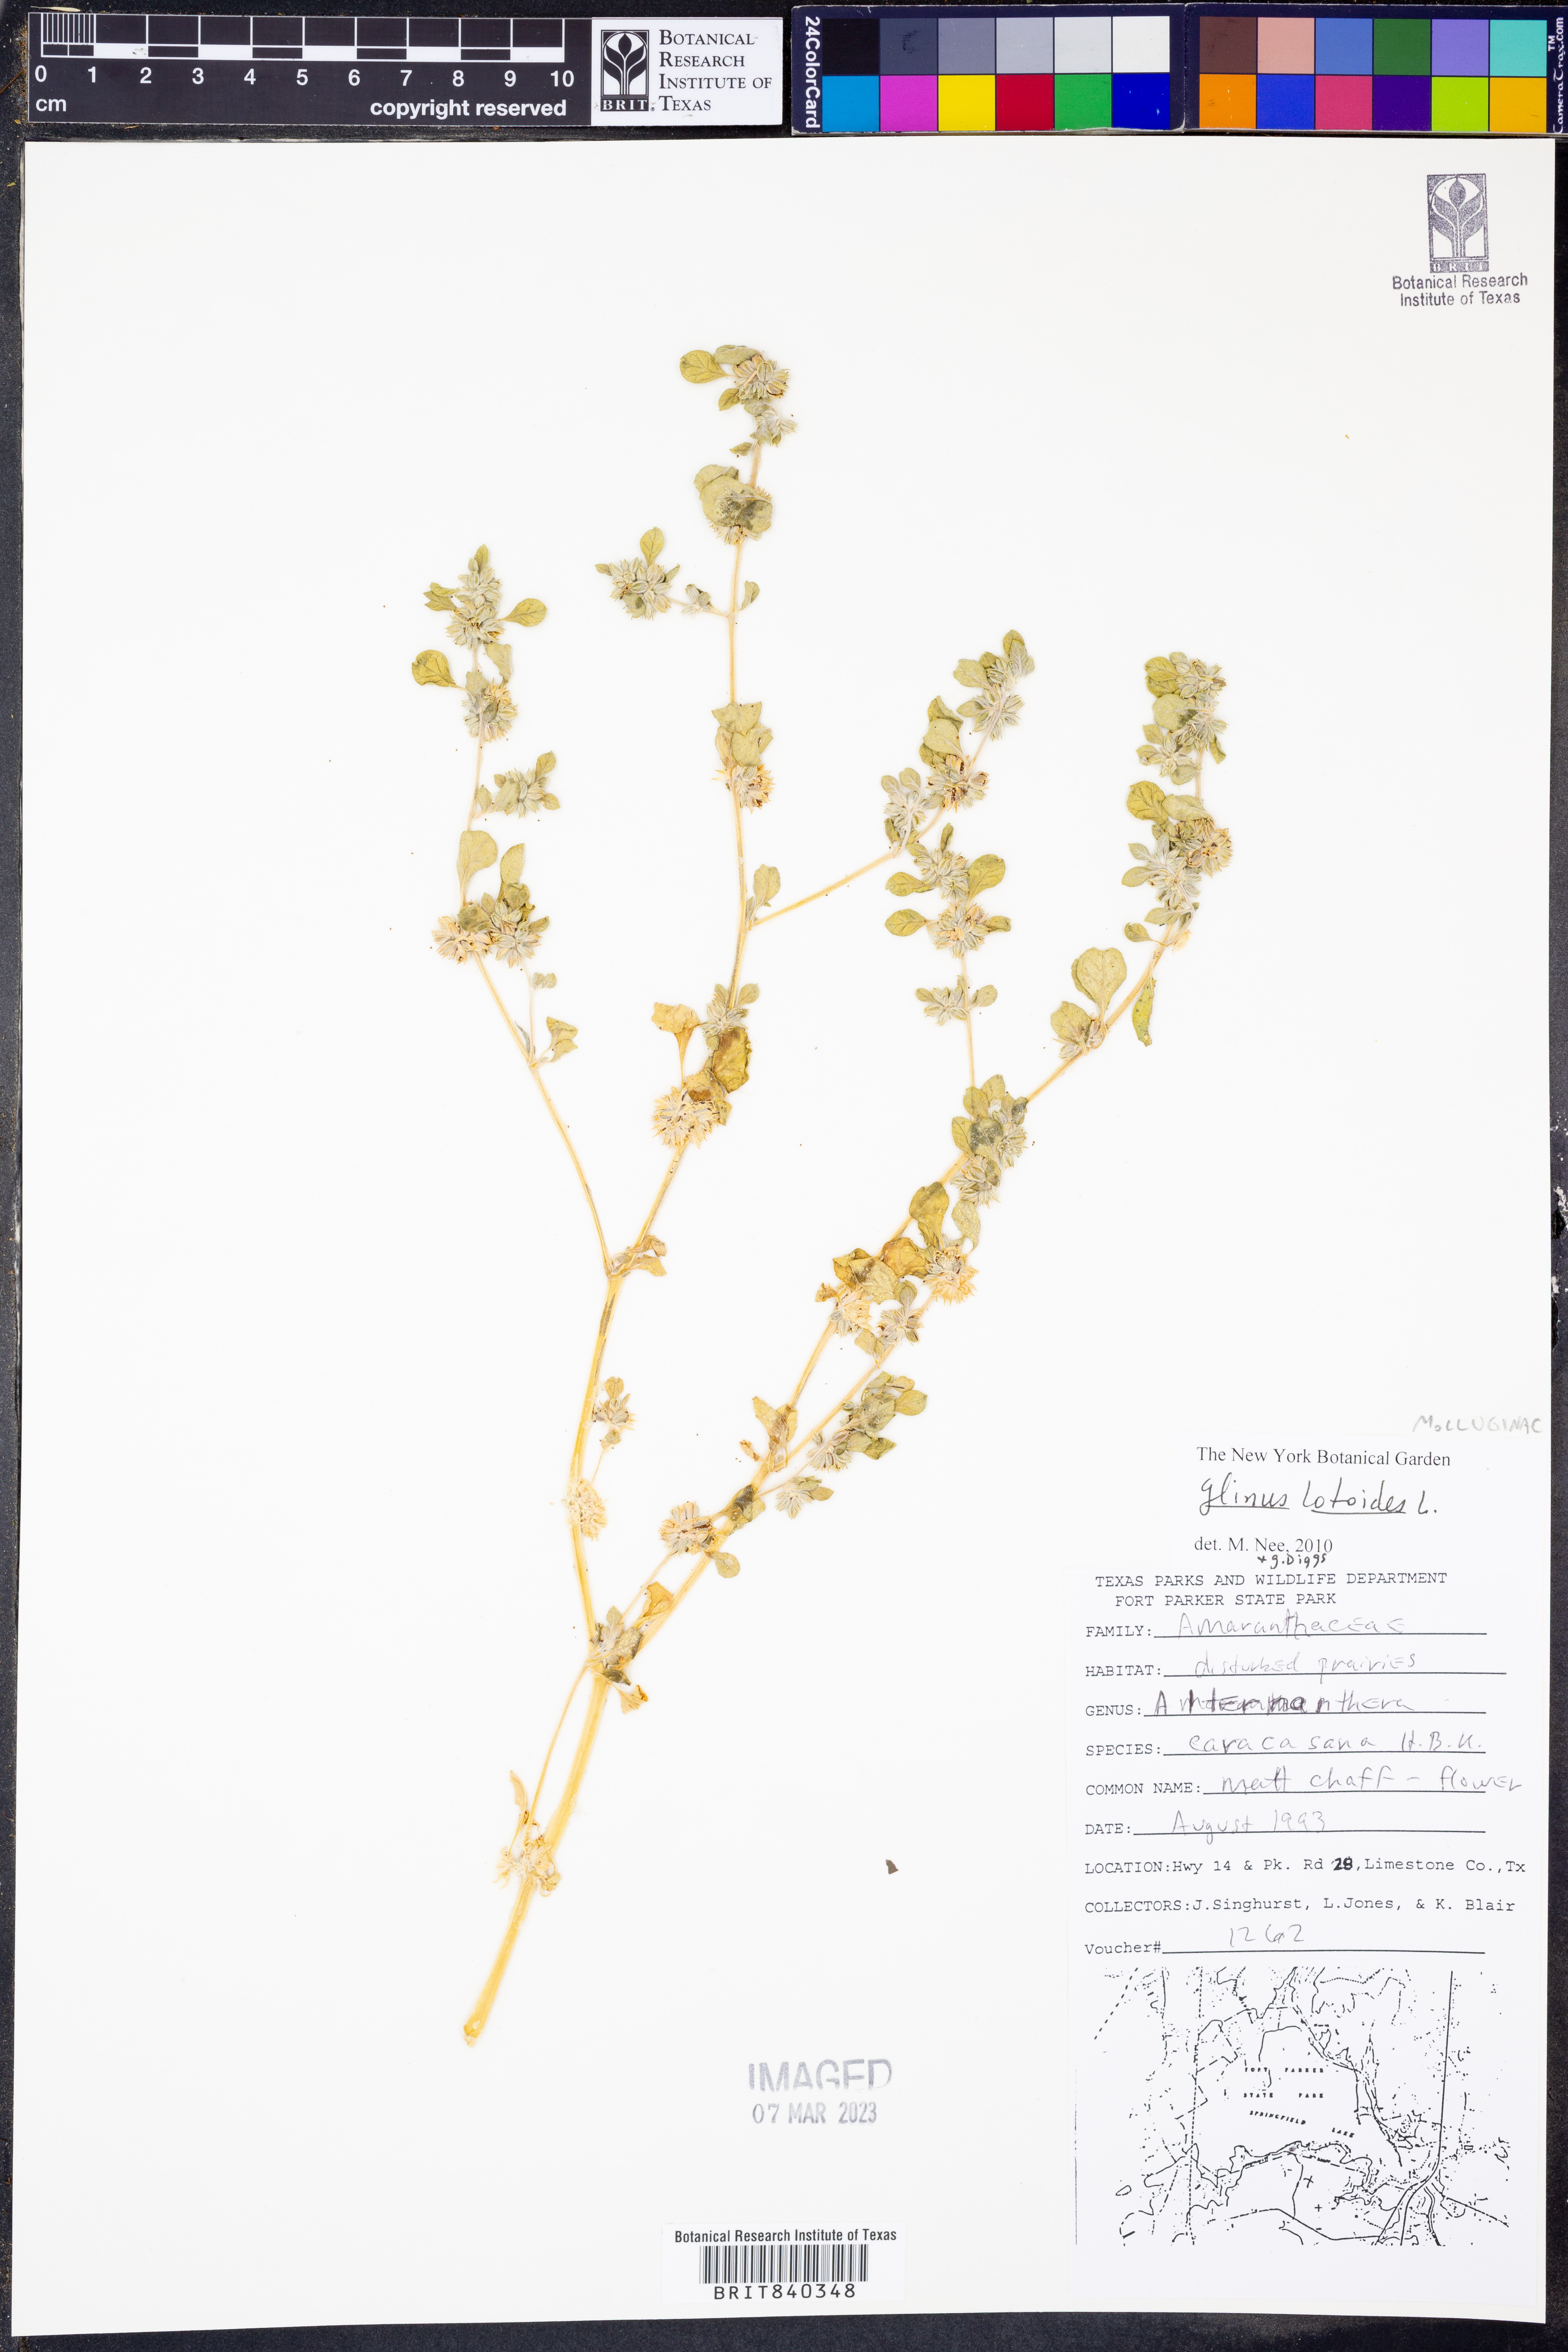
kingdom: Plantae
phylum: Tracheophyta
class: Magnoliopsida
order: Caryophyllales
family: Molluginaceae
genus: Glinus
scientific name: Glinus lotoides
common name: Lotus sweetjuice
